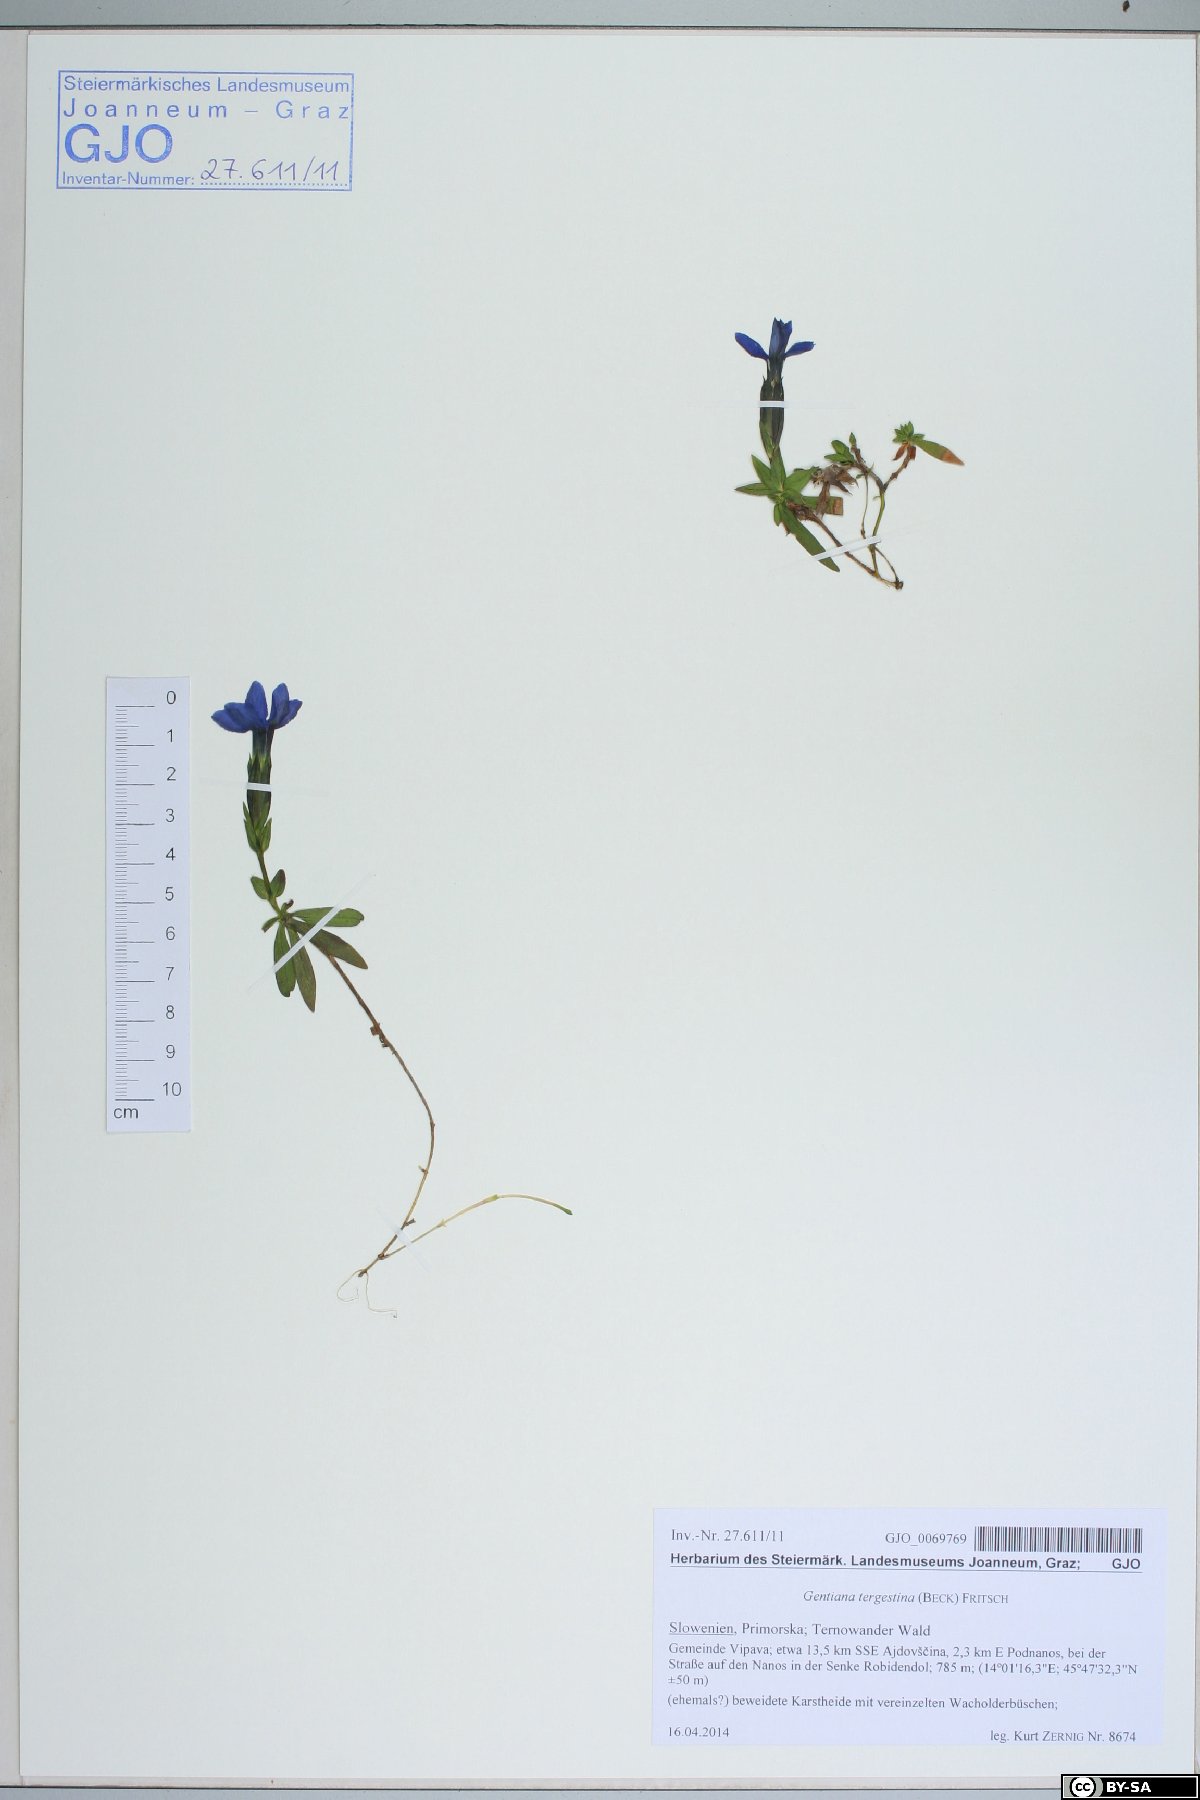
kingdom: Plantae
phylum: Tracheophyta
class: Magnoliopsida
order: Gentianales
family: Gentianaceae
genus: Gentiana
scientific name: Gentiana verna
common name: Spring gentian
